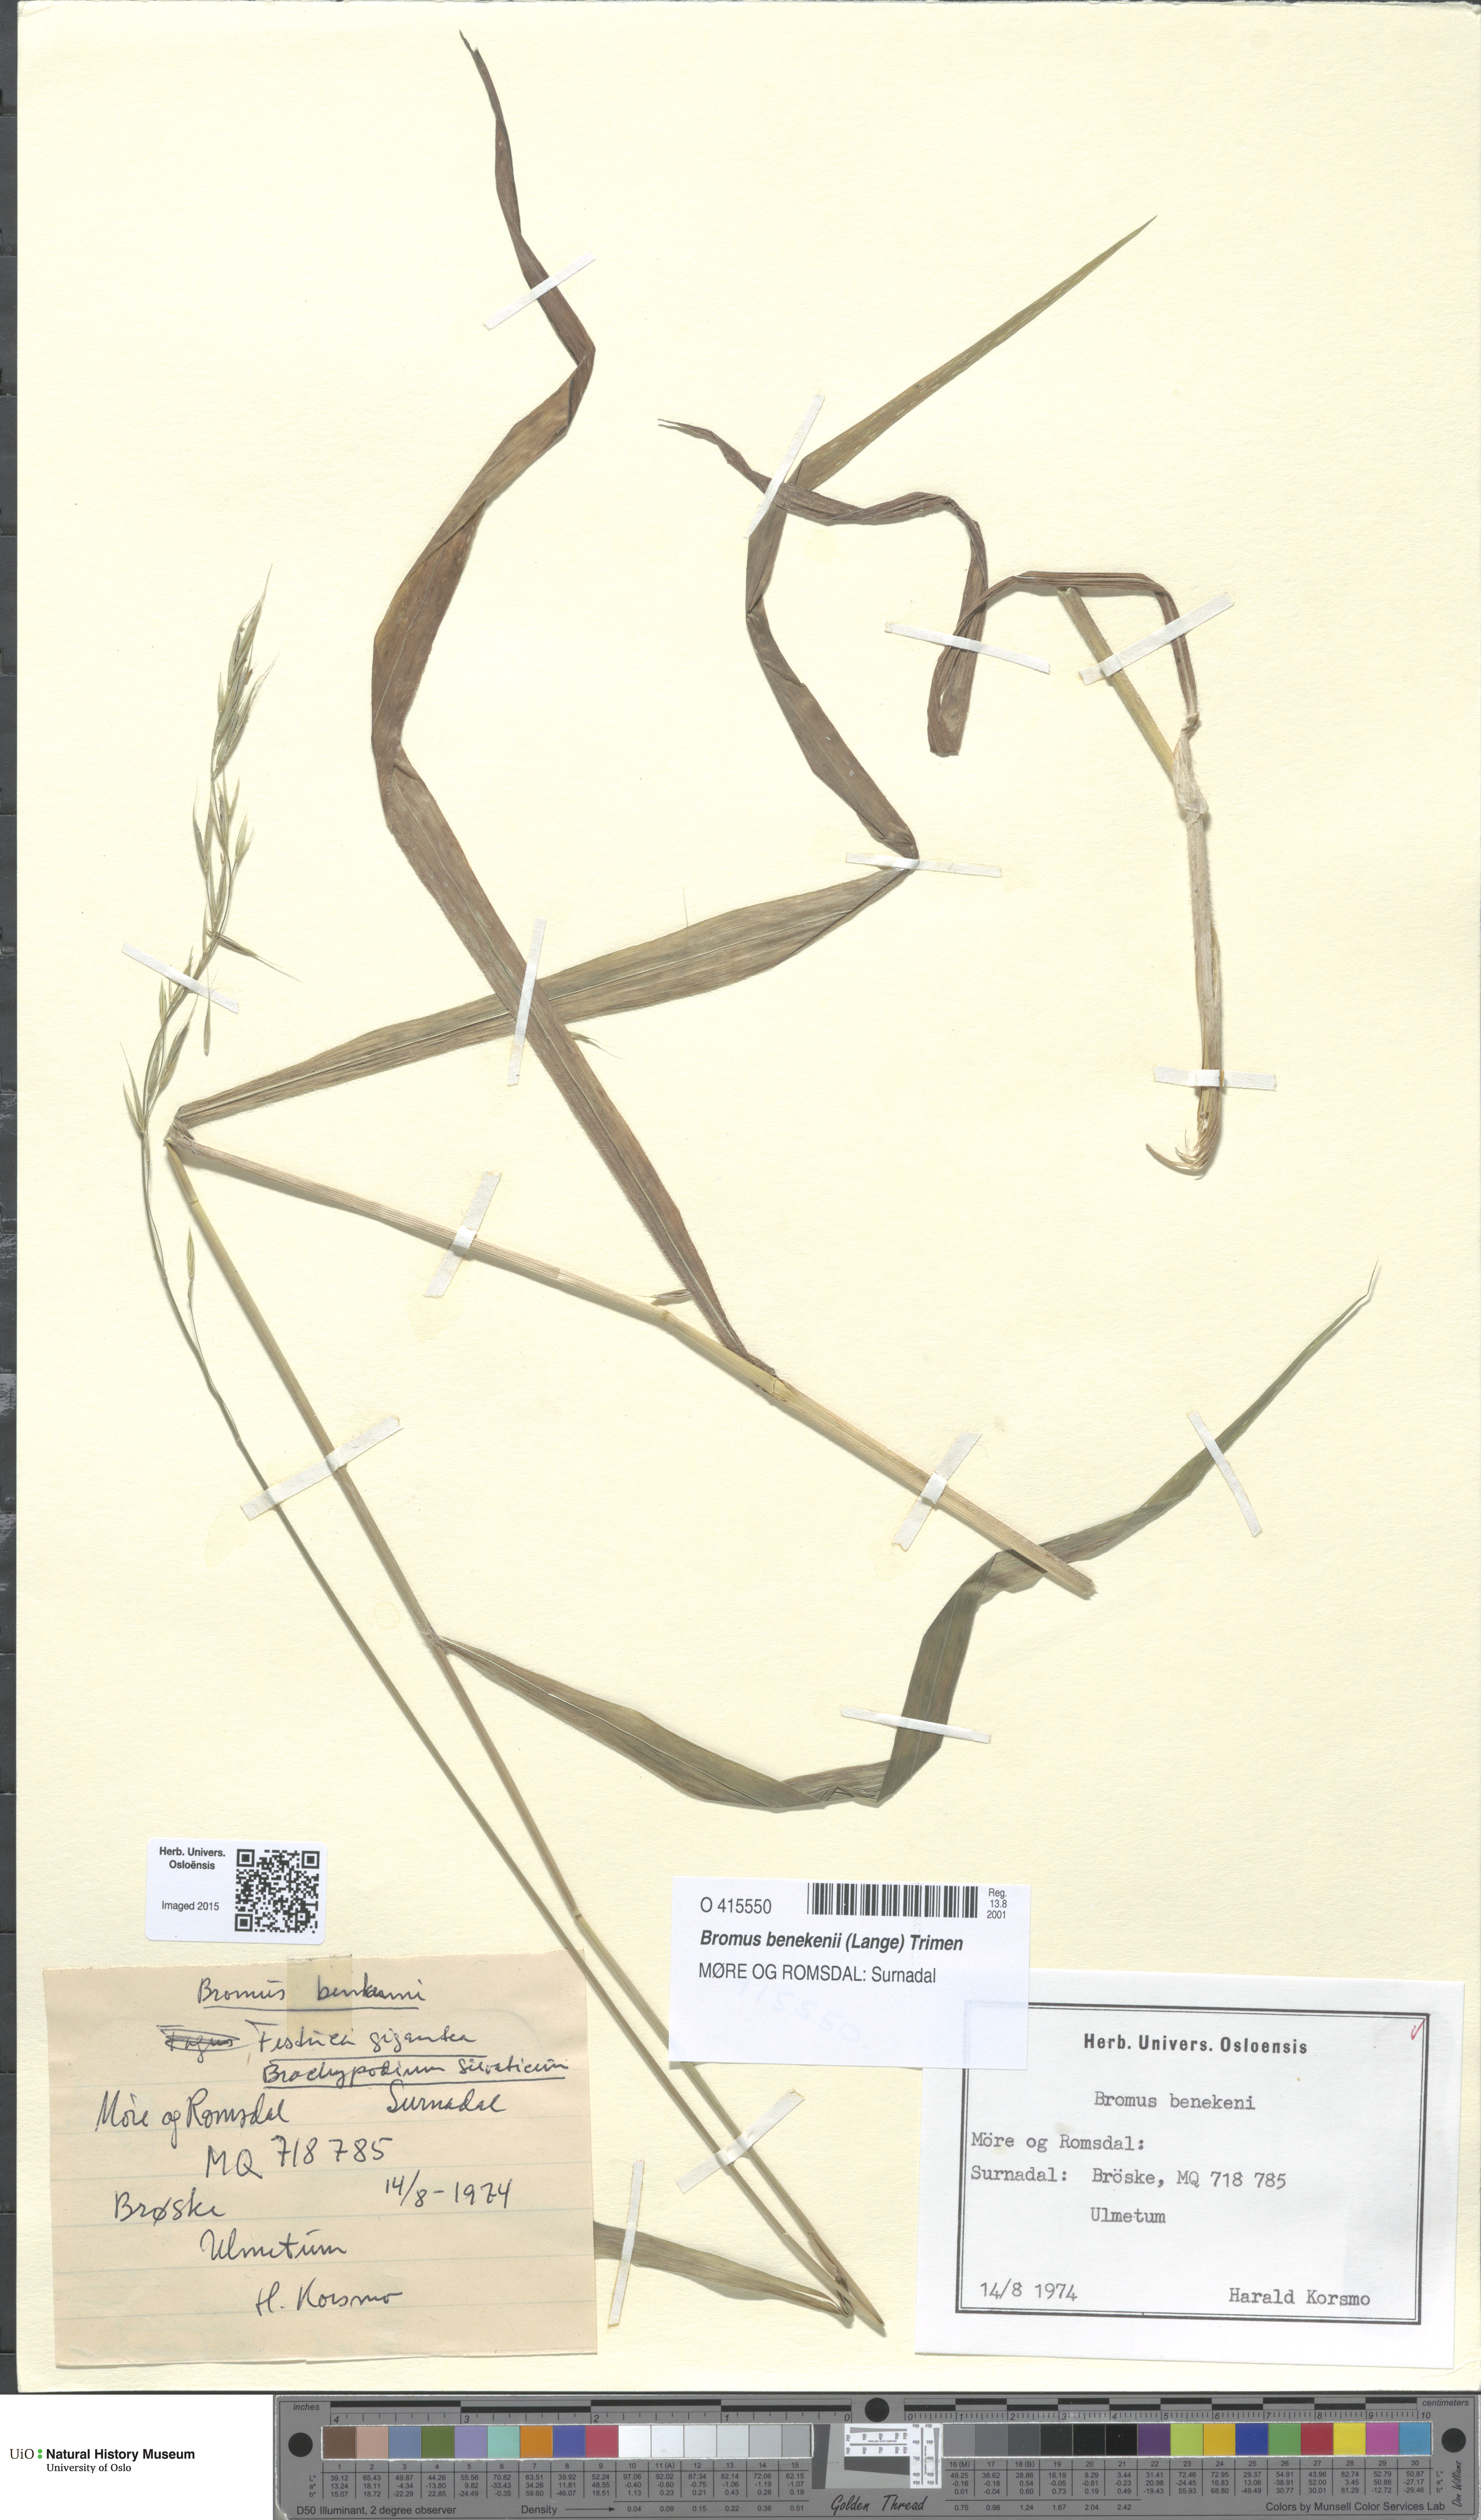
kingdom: Plantae
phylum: Tracheophyta
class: Liliopsida
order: Poales
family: Poaceae
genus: Bromus
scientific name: Bromus benekenii
